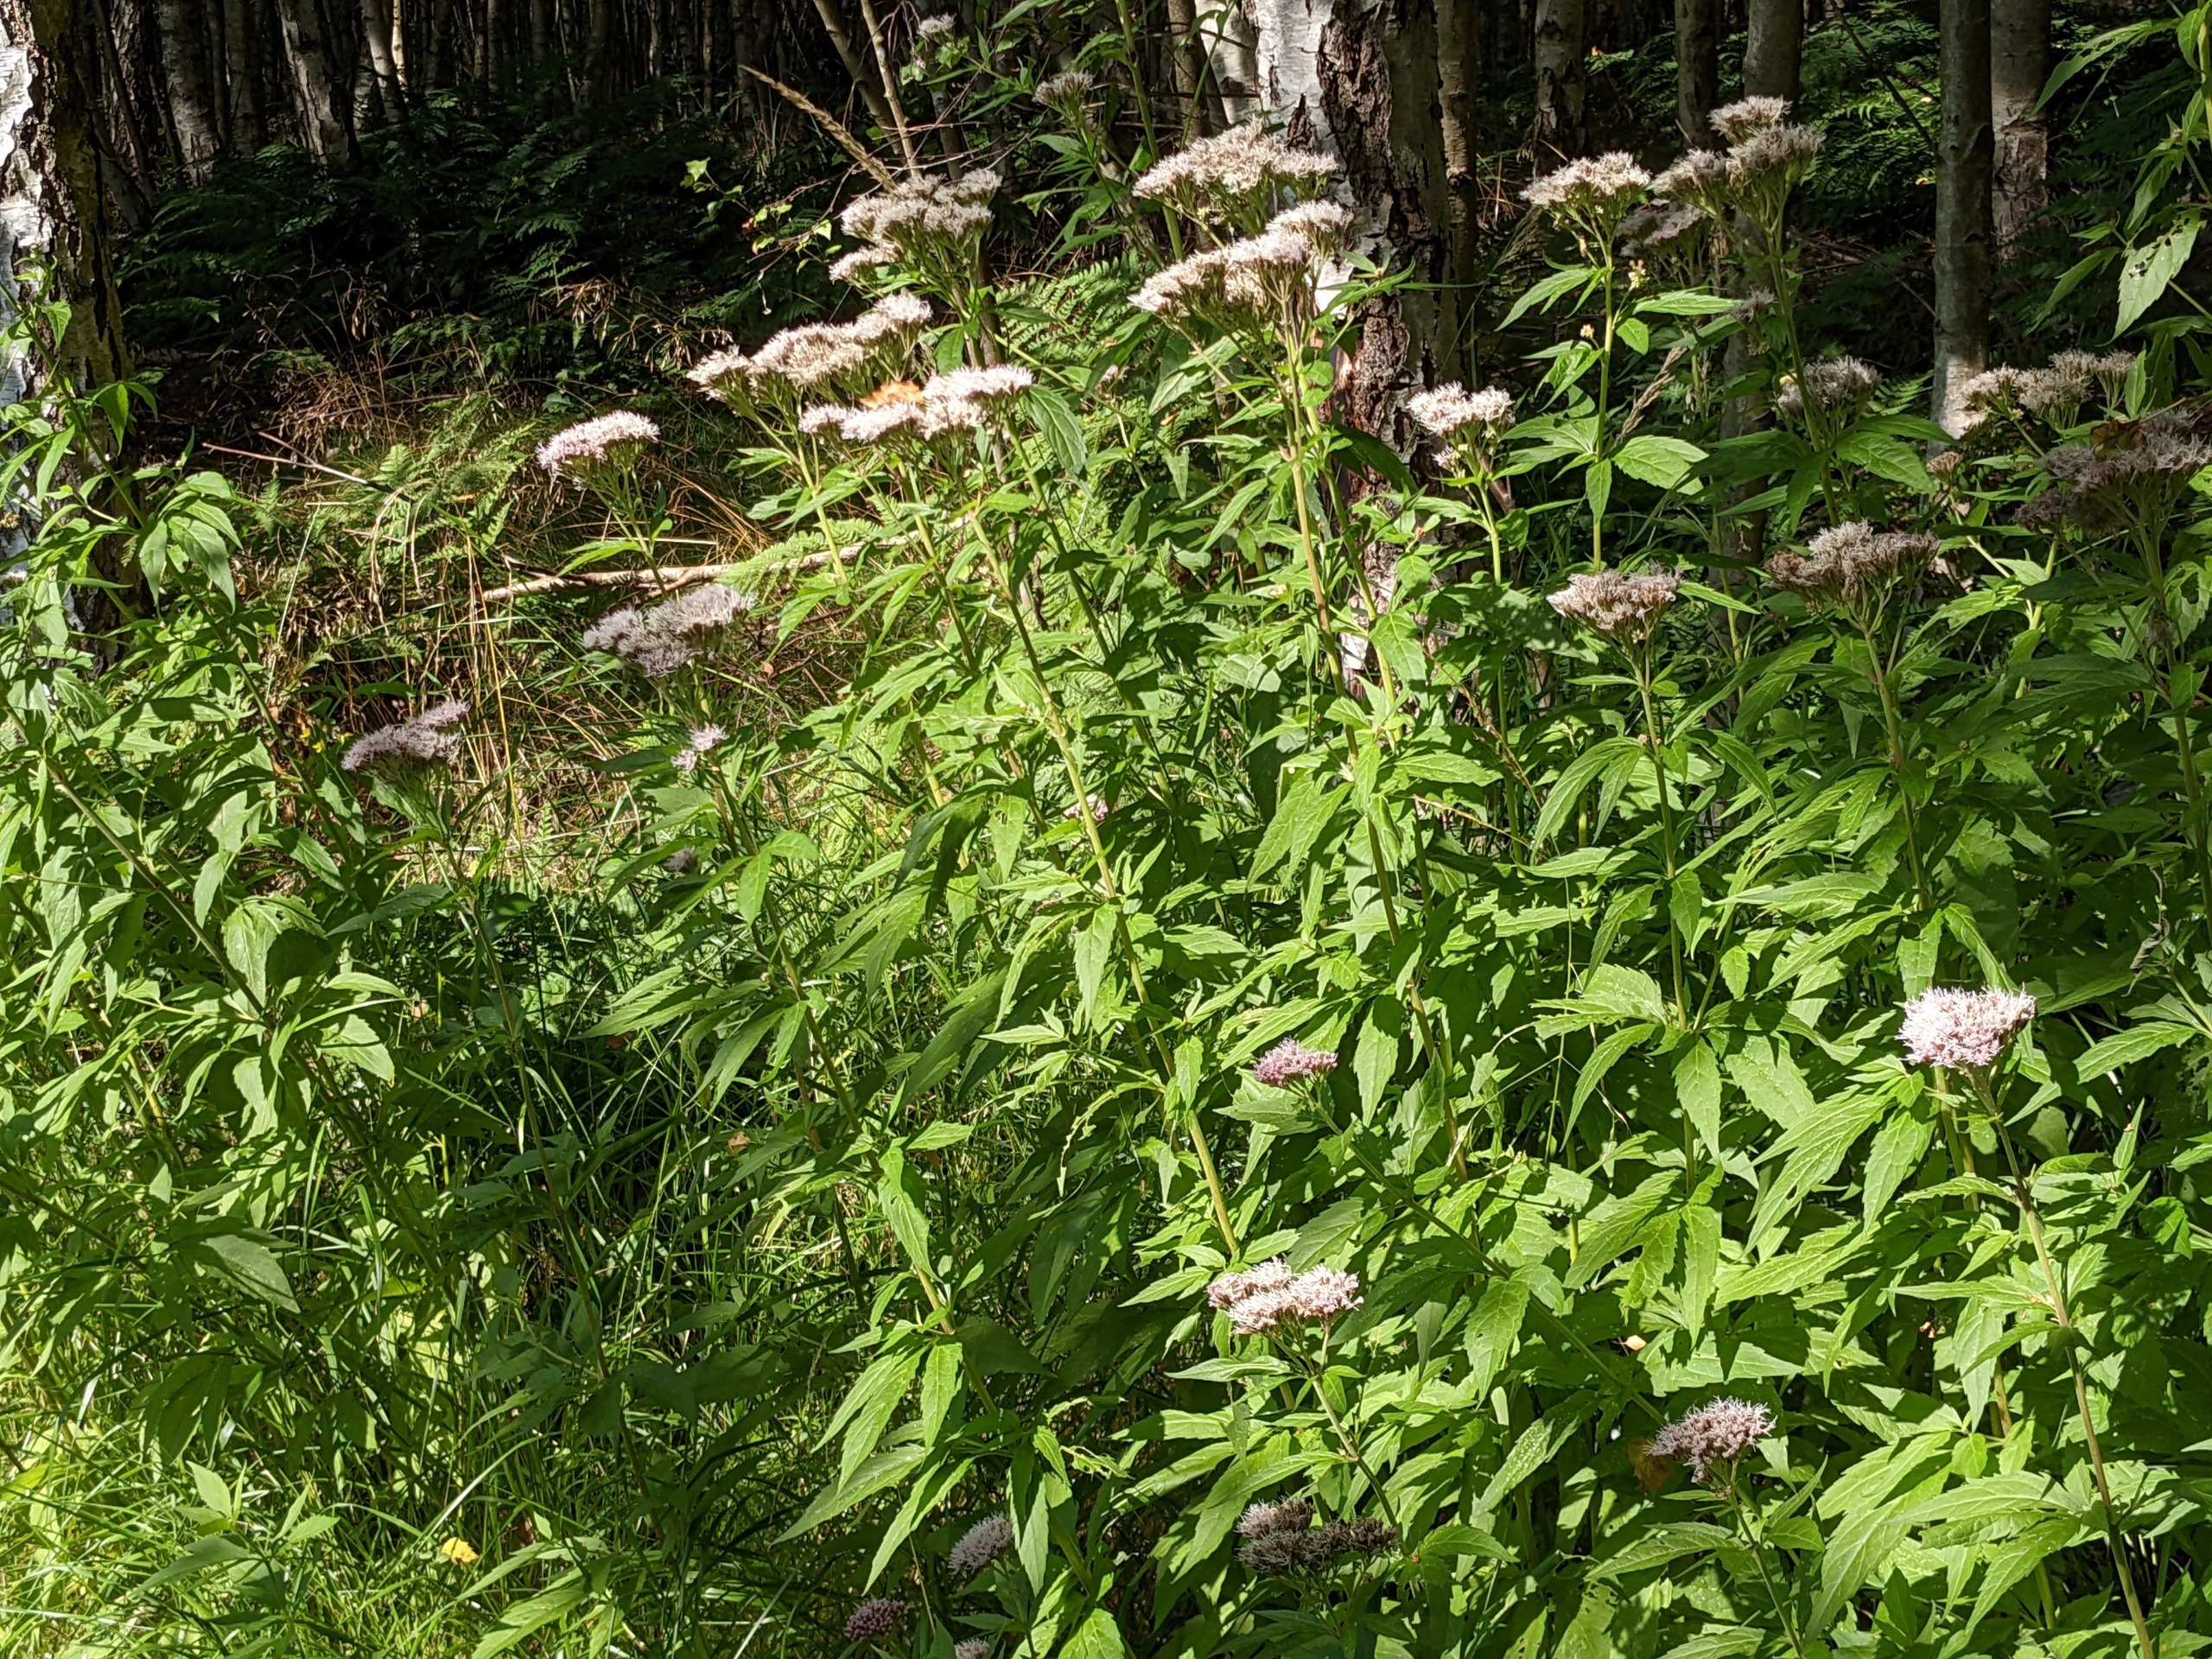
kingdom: Plantae
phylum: Tracheophyta
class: Magnoliopsida
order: Asterales
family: Asteraceae
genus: Eupatorium
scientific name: Eupatorium cannabinum
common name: Hjortetrøst
